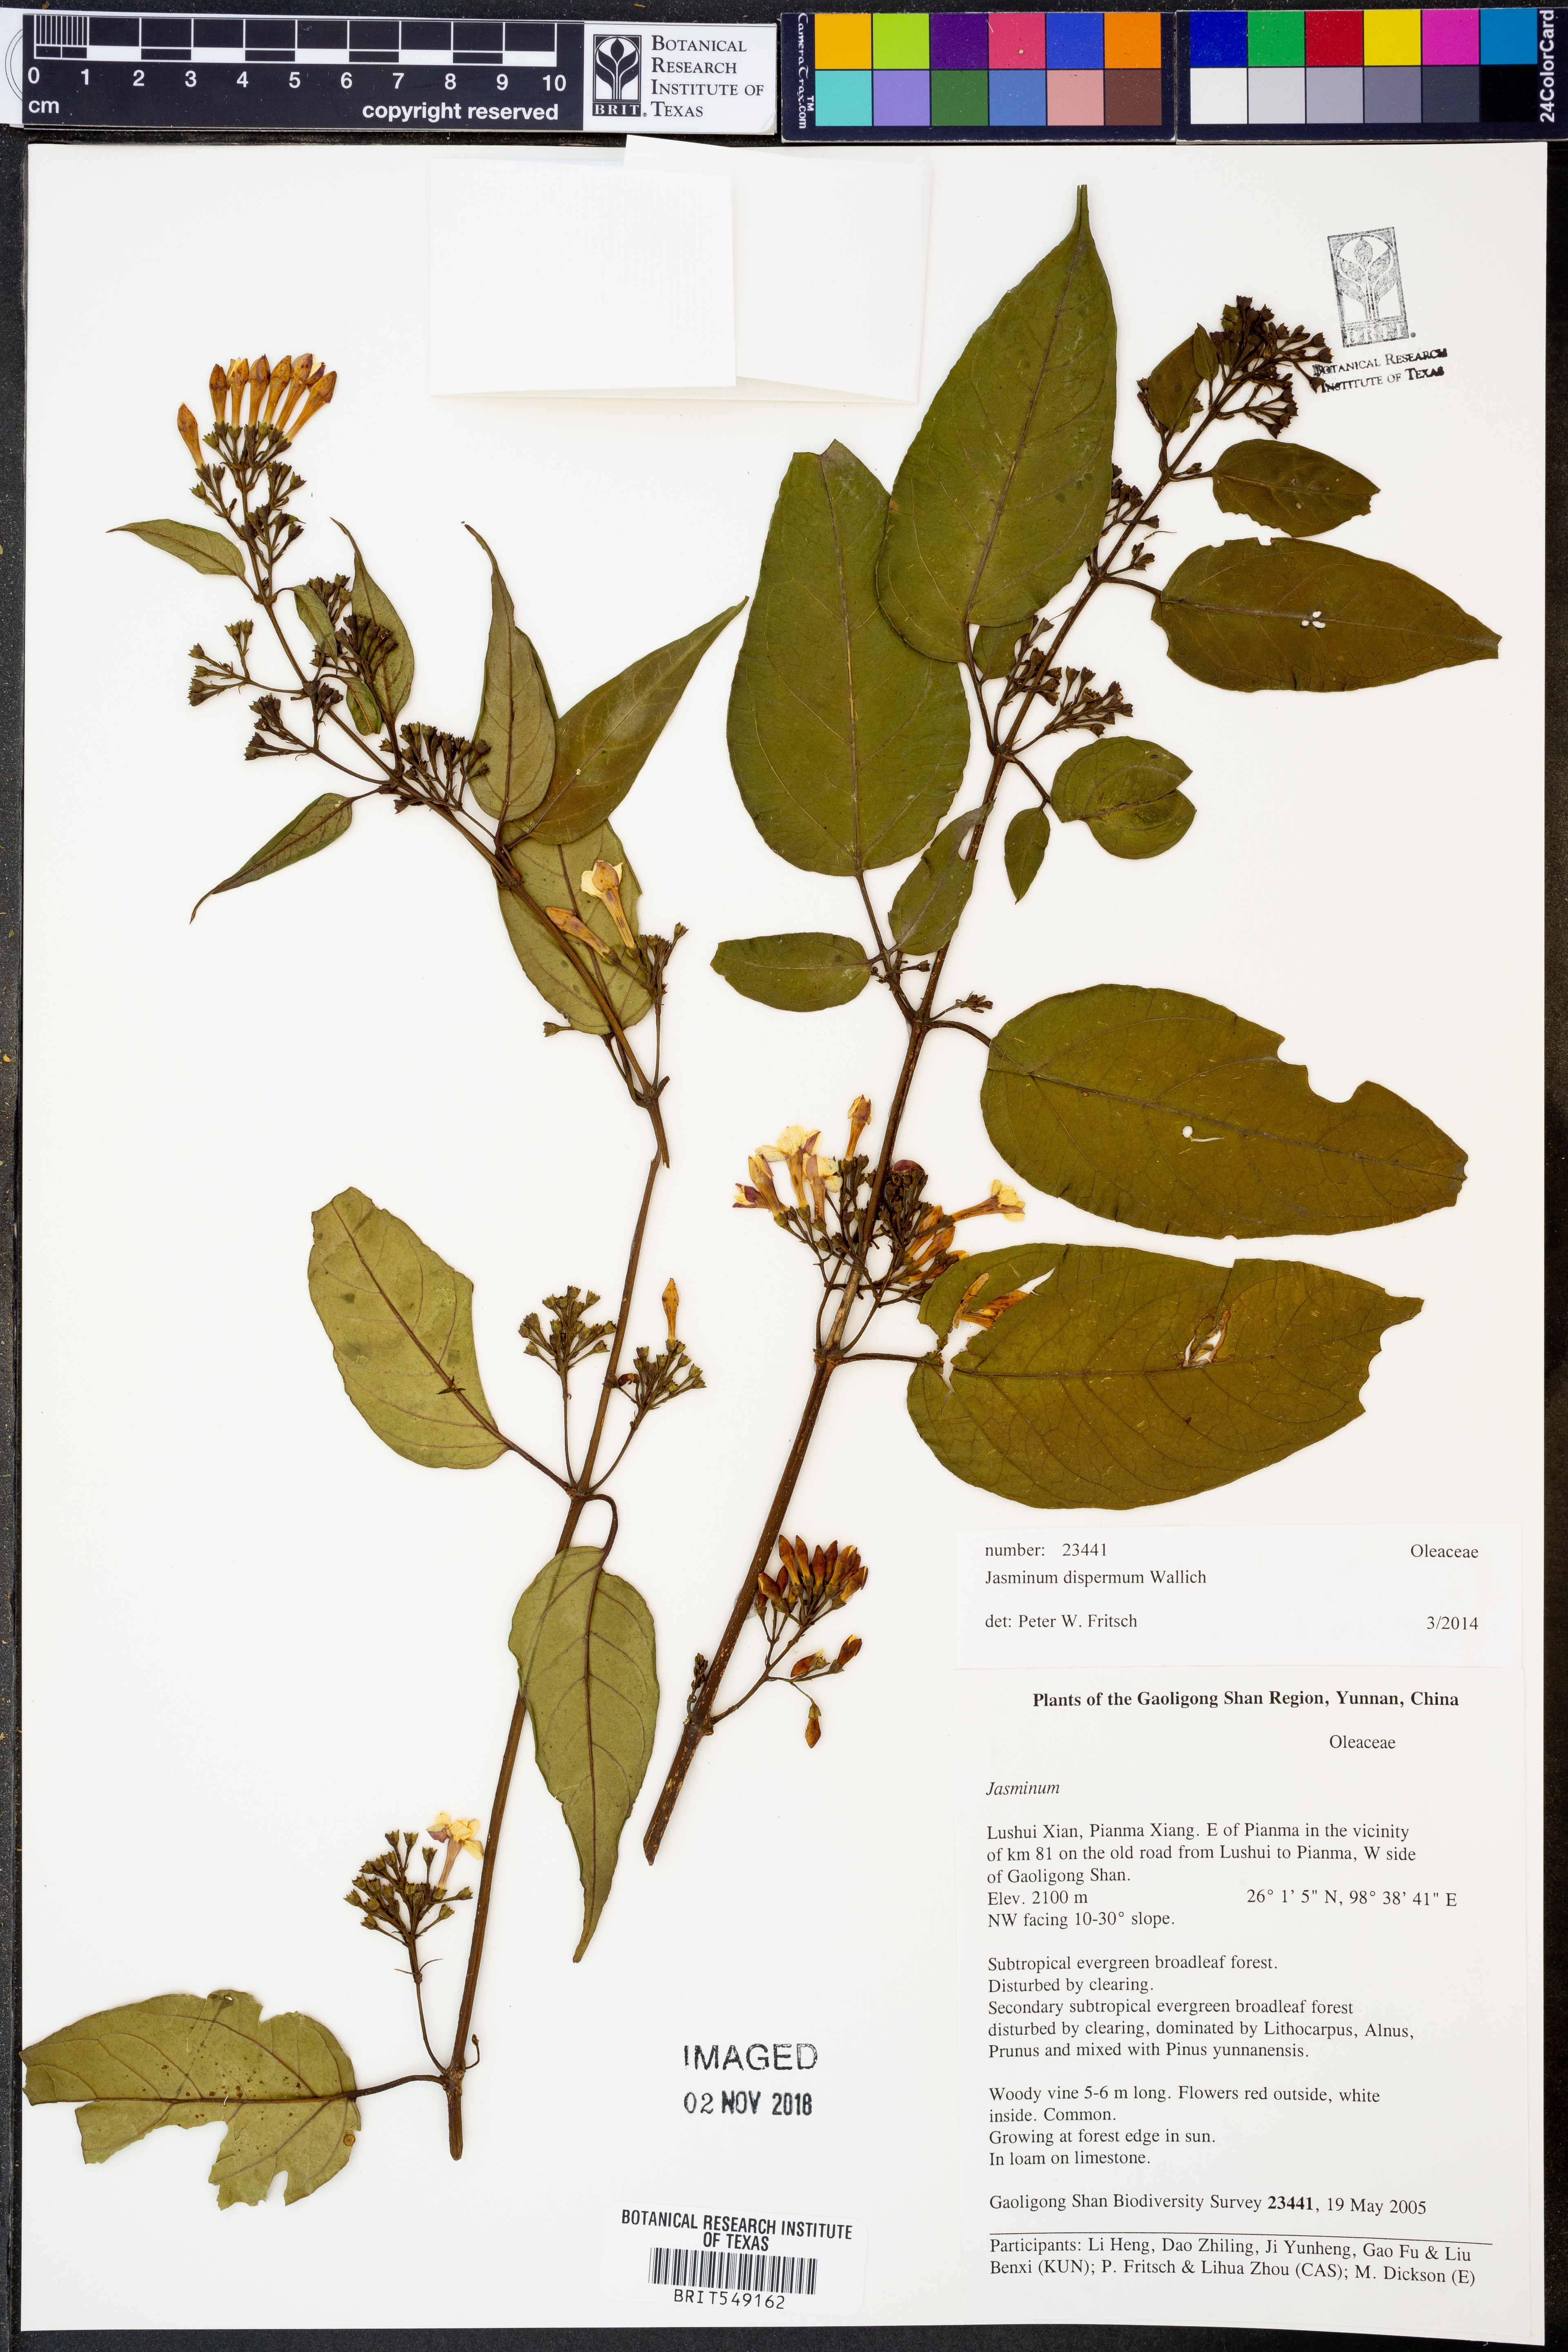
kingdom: Plantae
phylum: Tracheophyta
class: Magnoliopsida
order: Lamiales
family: Oleaceae
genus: Jasminum
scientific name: Jasminum dispermum
